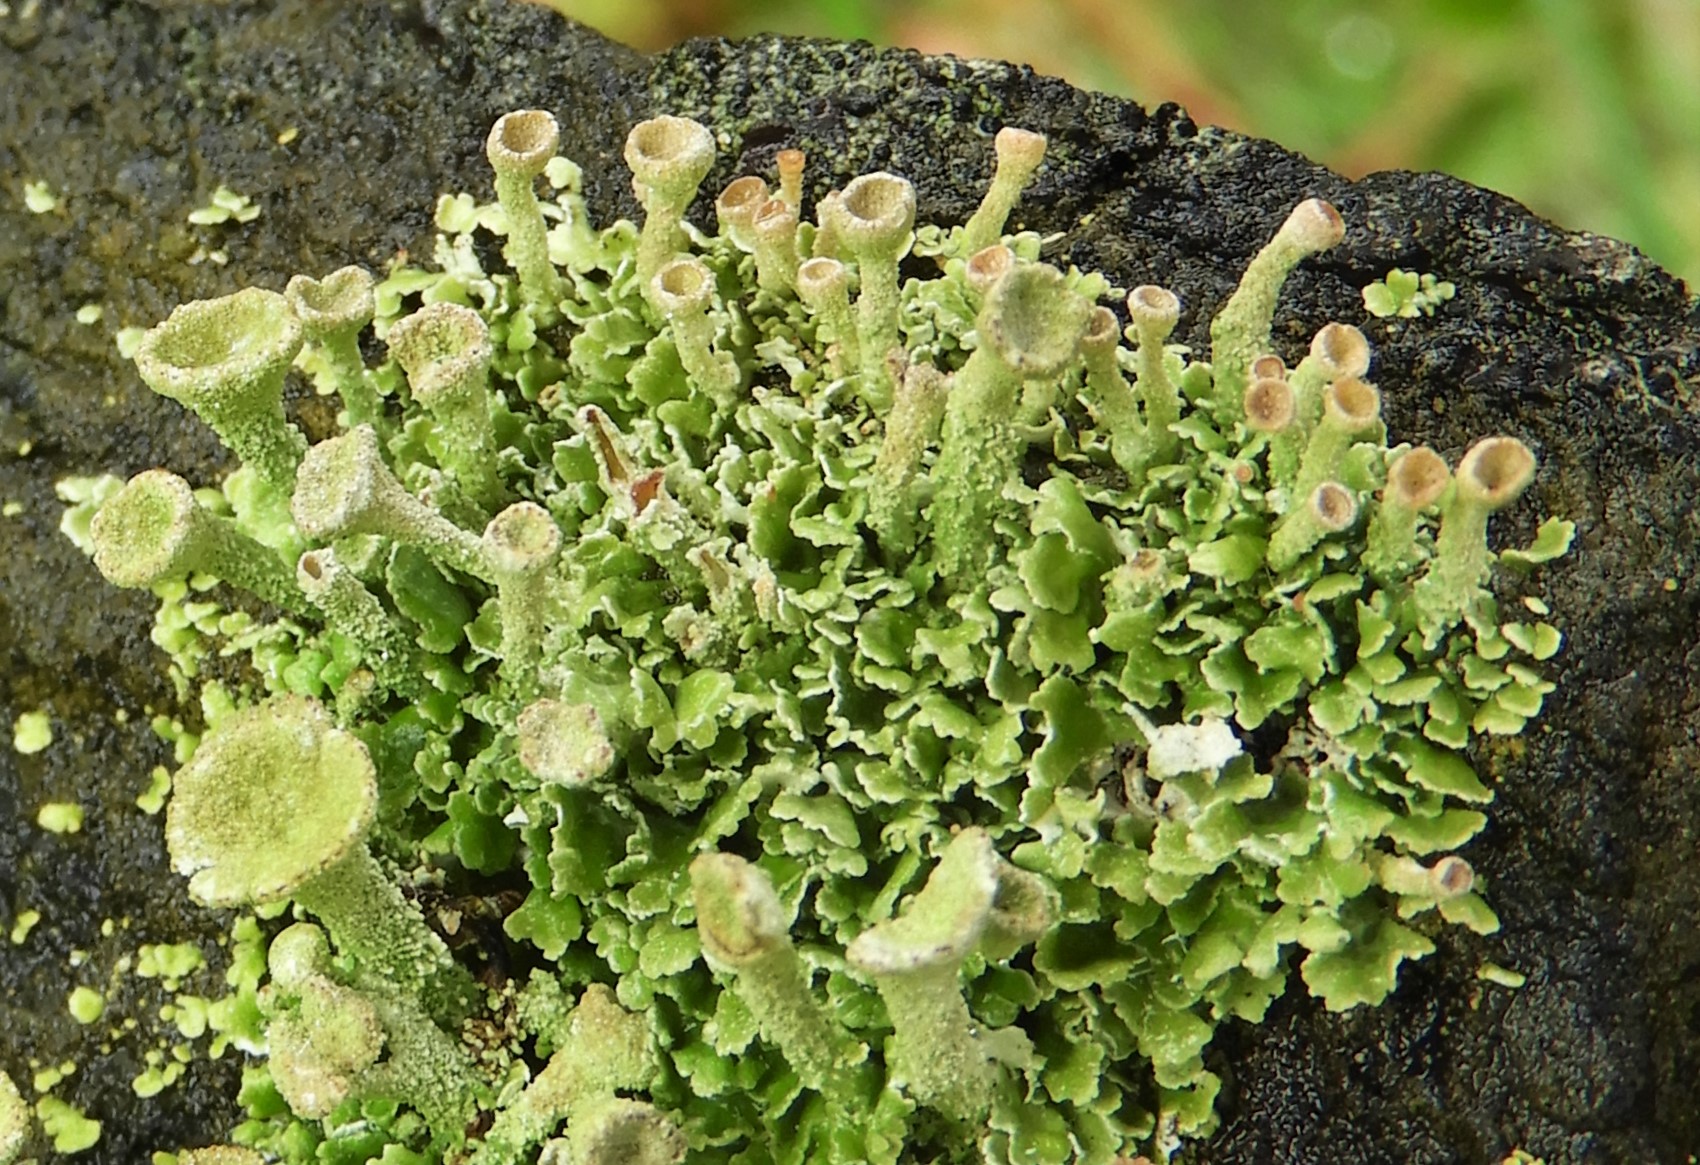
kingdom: Fungi
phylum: Ascomycota
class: Lecanoromycetes
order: Lecanorales
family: Cladoniaceae
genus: Cladonia
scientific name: Cladonia
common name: brungrøn bægerlav
